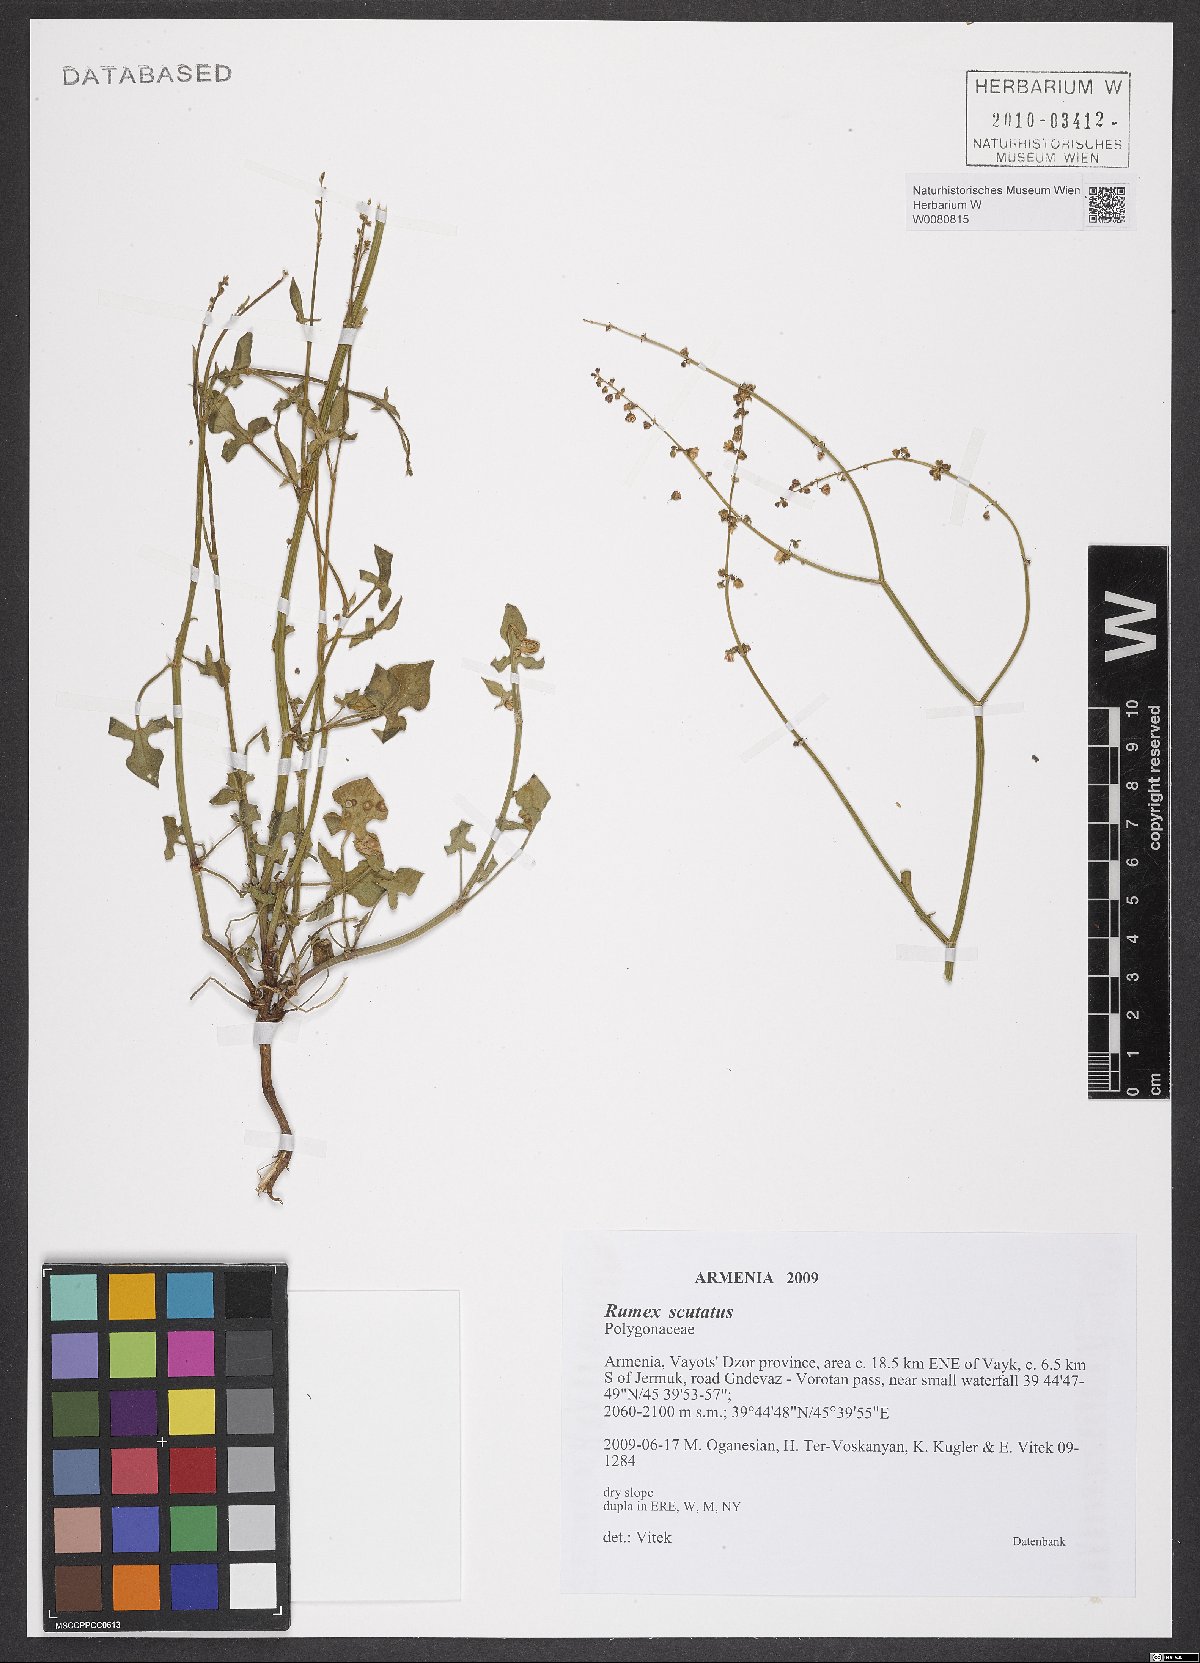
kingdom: Plantae
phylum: Tracheophyta
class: Magnoliopsida
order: Caryophyllales
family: Polygonaceae
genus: Rumex
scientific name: Rumex scutatus
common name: French sorrel
